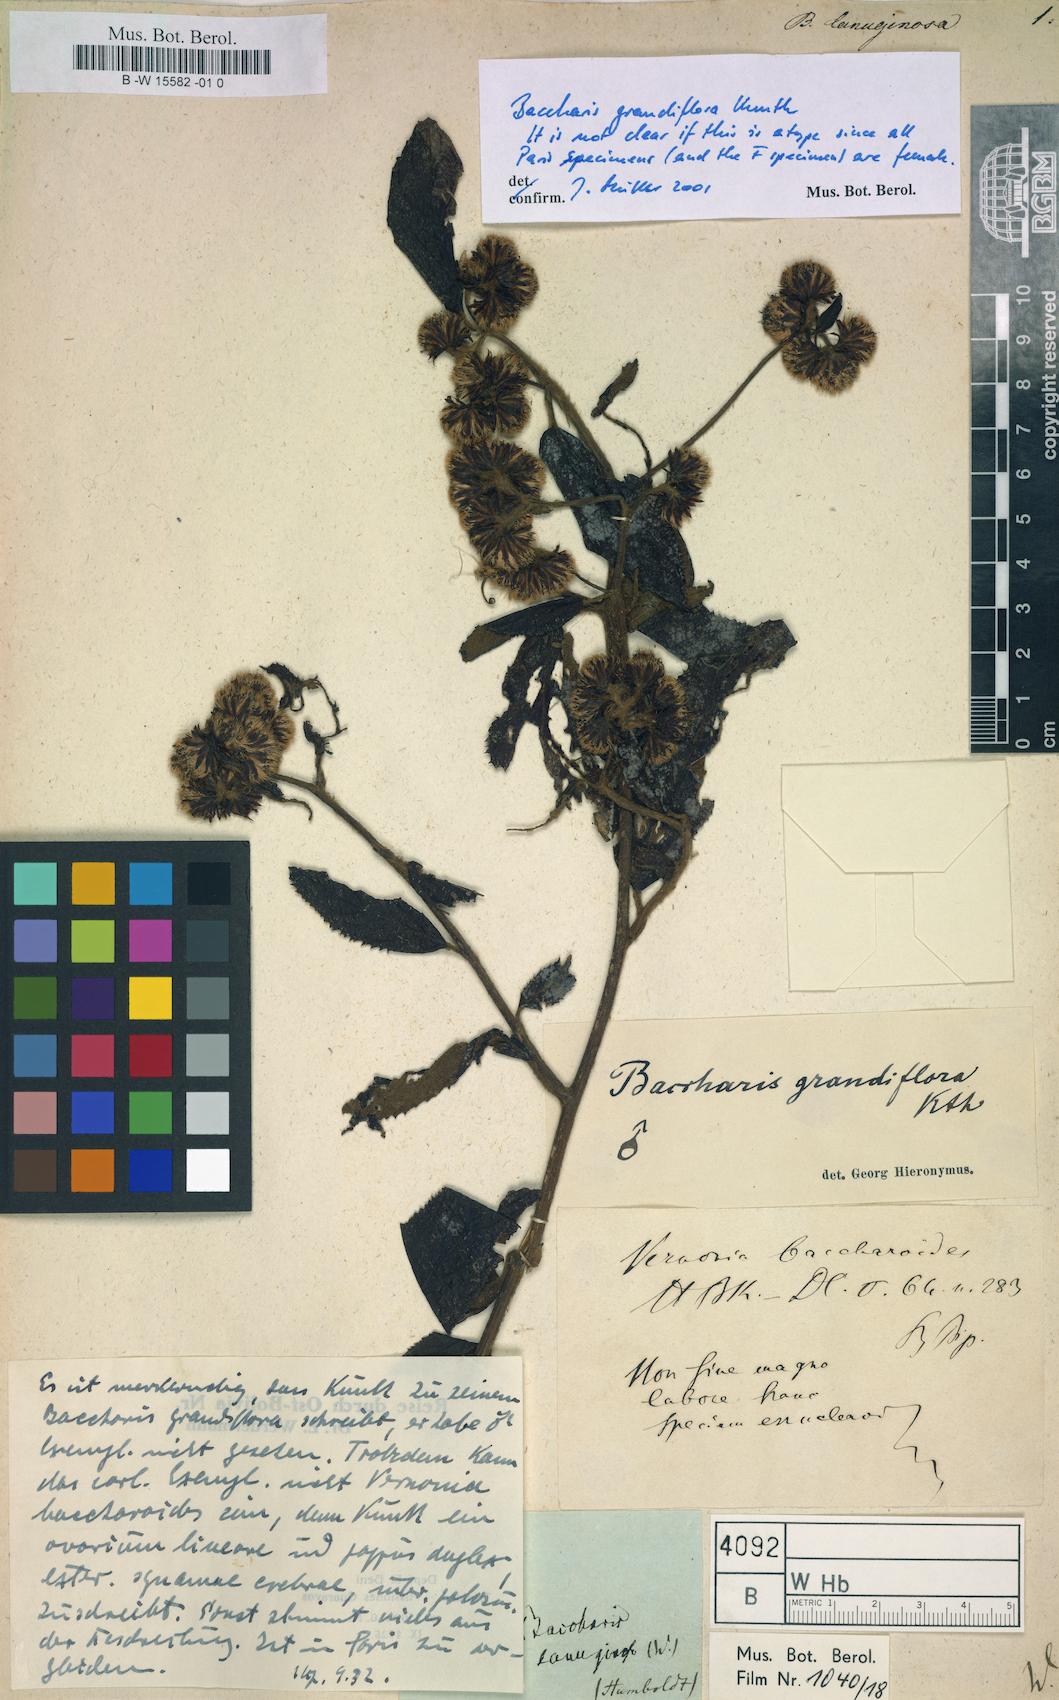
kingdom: Plantae
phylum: Tracheophyta
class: Magnoliopsida
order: Asterales
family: Asteraceae
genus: Baccharis
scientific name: Baccharis helichrysoides
